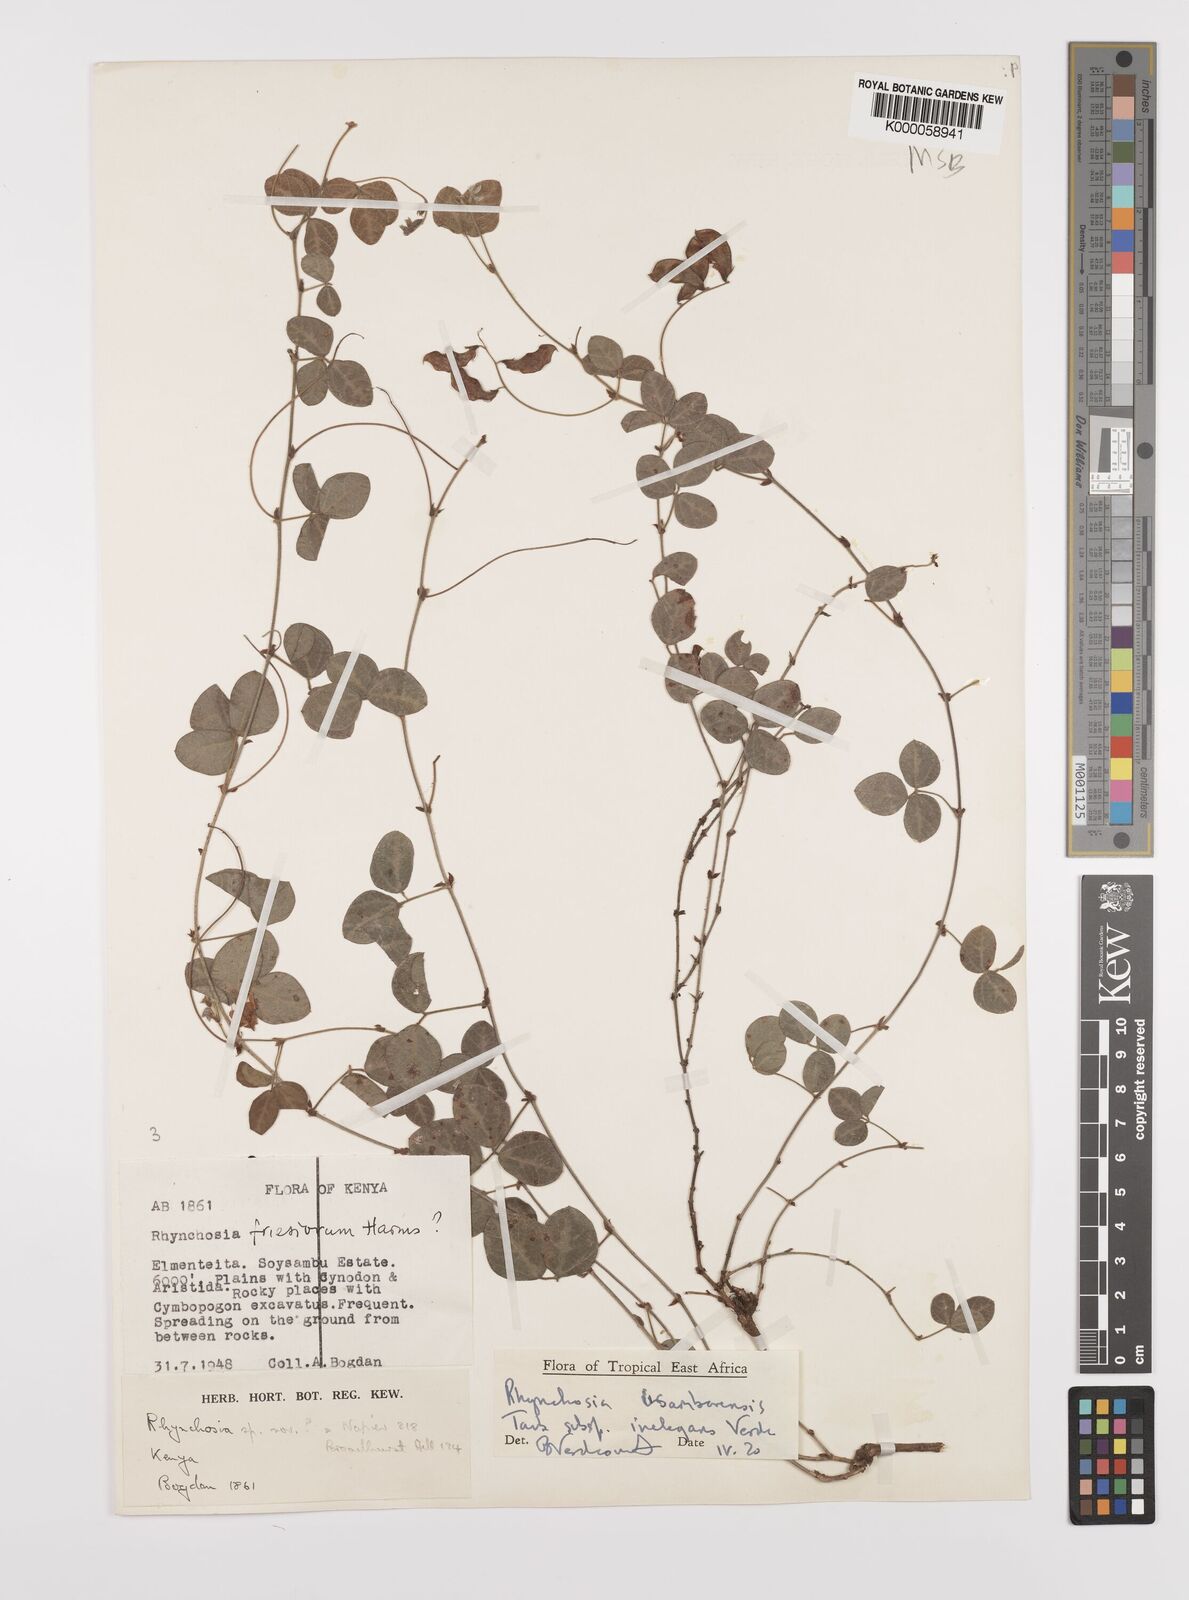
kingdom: Plantae
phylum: Tracheophyta
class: Magnoliopsida
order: Fabales
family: Fabaceae
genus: Rhynchosia
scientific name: Rhynchosia usambarensis
